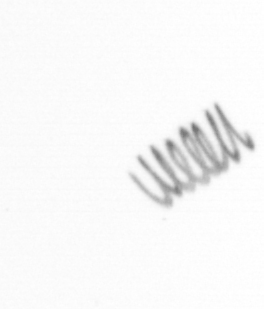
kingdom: Chromista
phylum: Ochrophyta
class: Bacillariophyceae
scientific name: Bacillariophyceae
